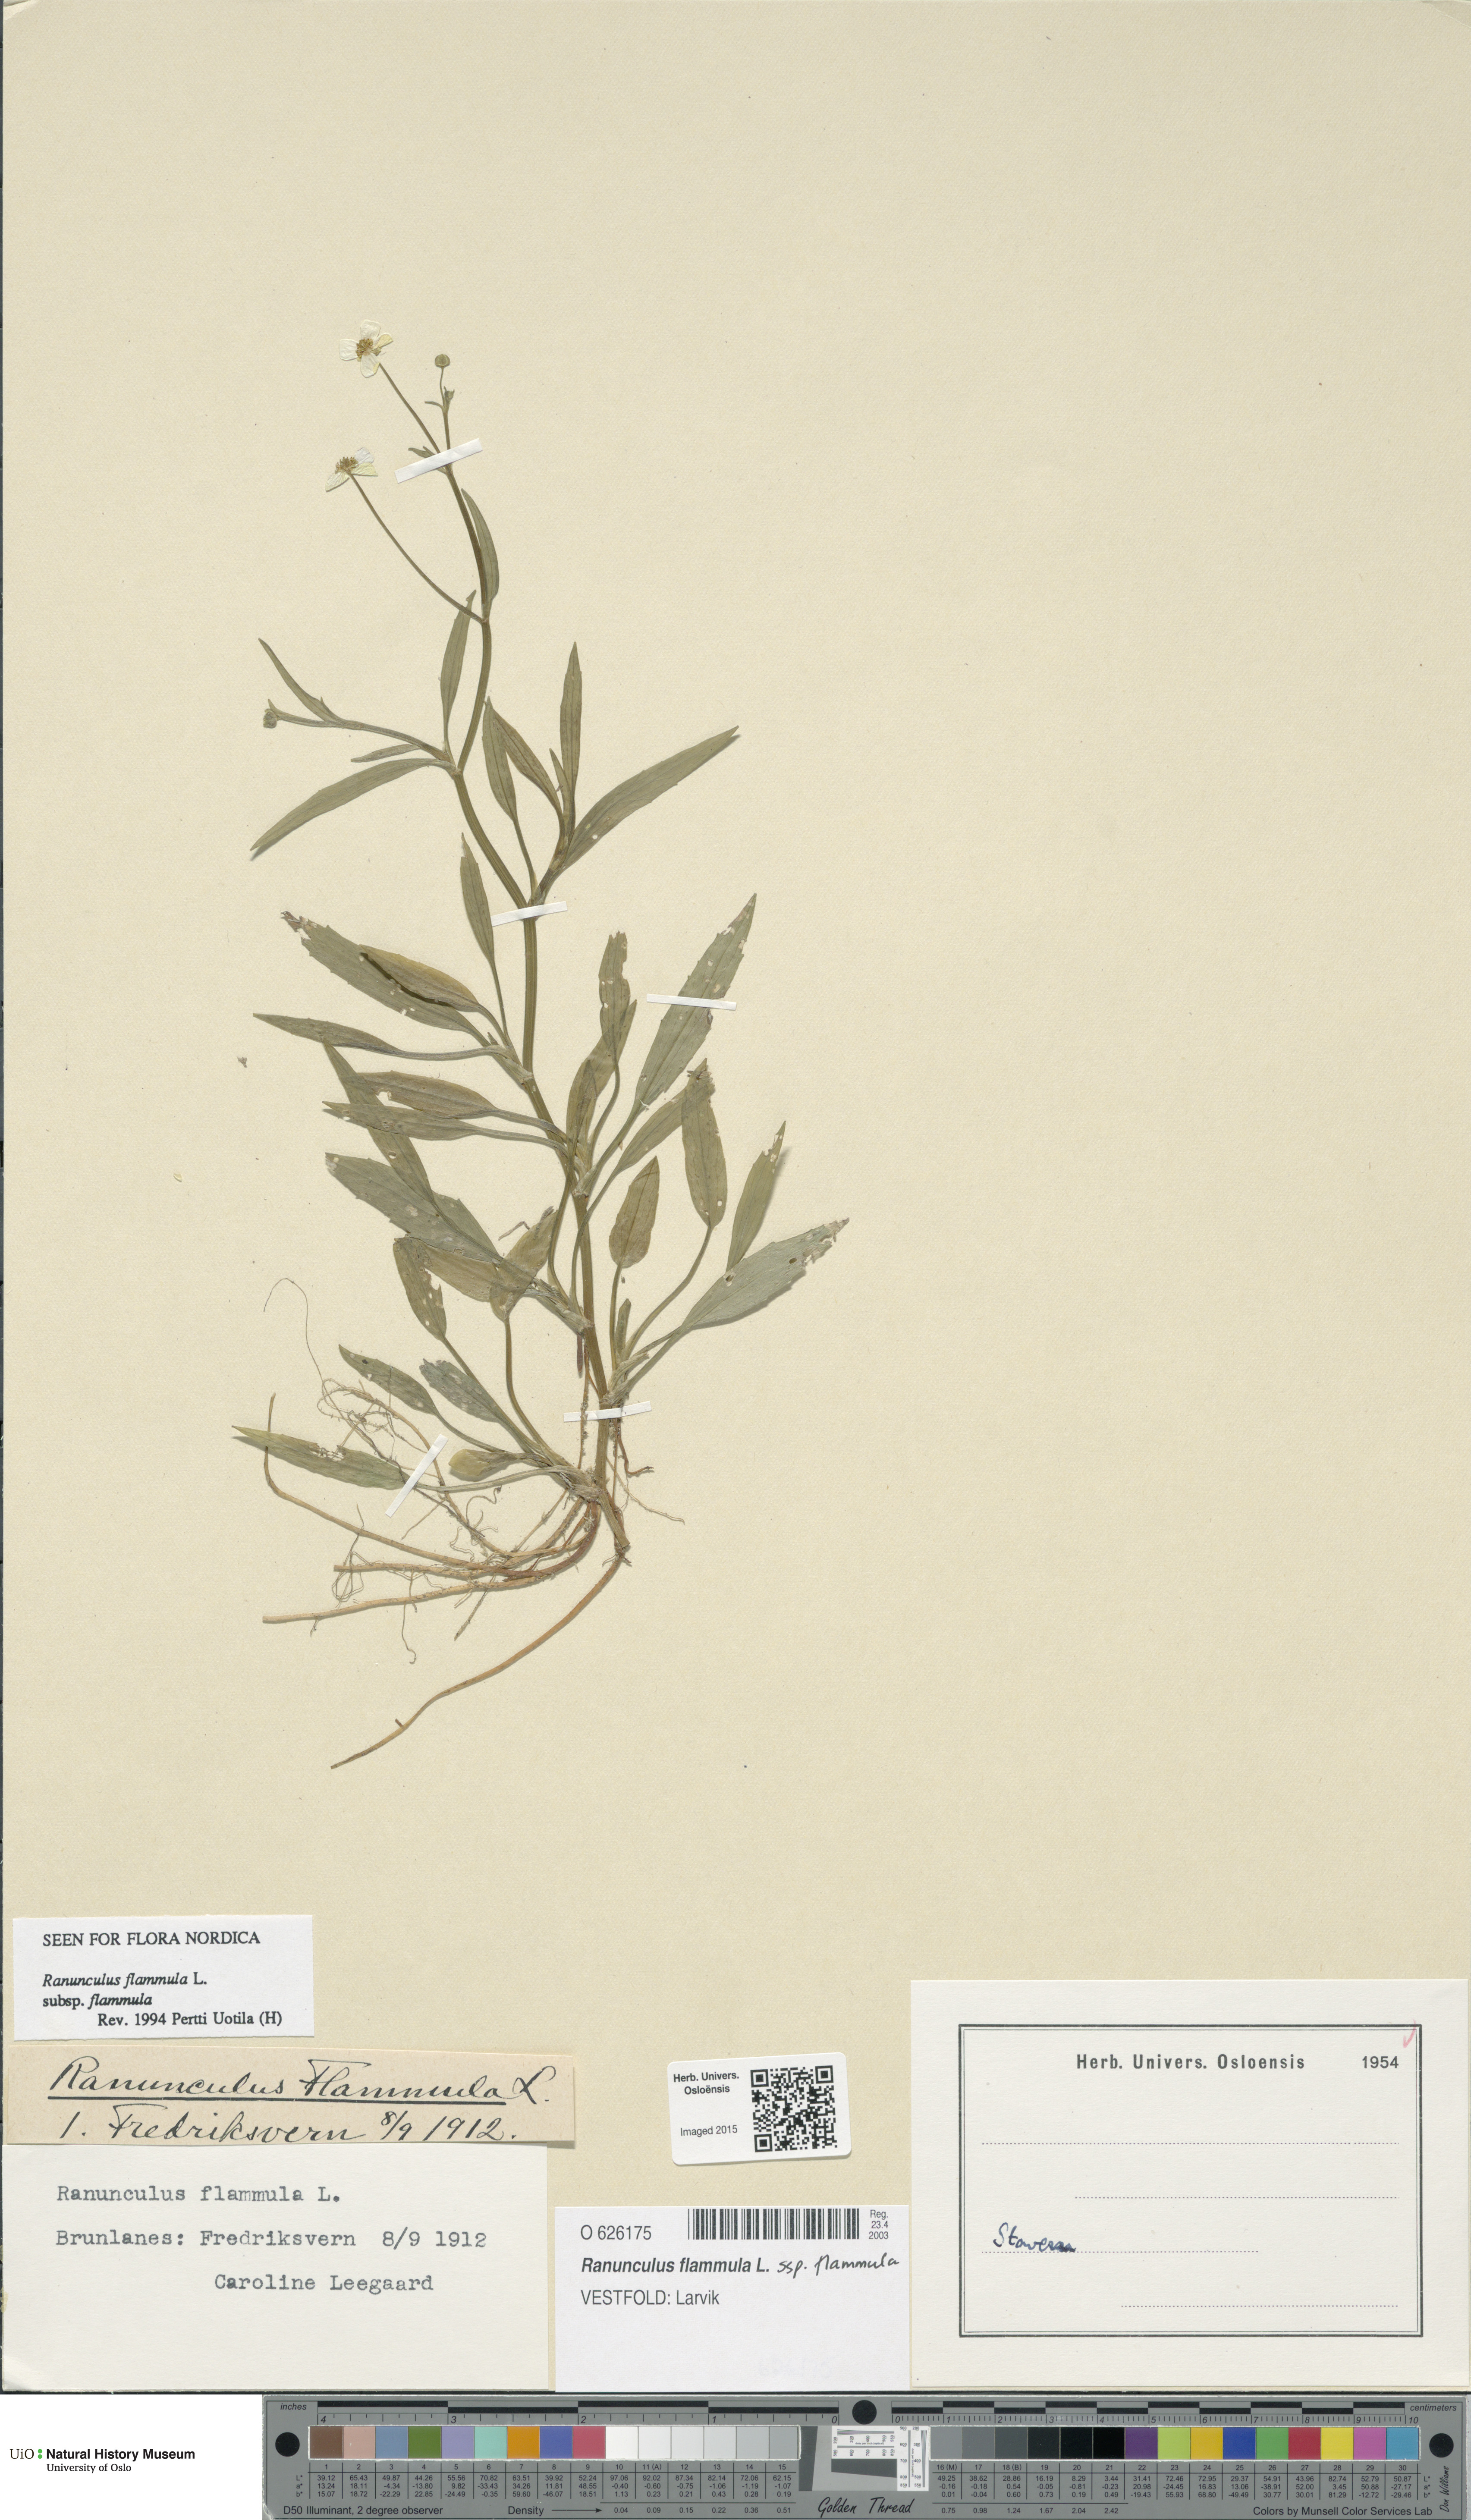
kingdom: Plantae
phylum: Tracheophyta
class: Magnoliopsida
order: Ranunculales
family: Ranunculaceae
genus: Ranunculus
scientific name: Ranunculus flammula
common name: Lesser spearwort
